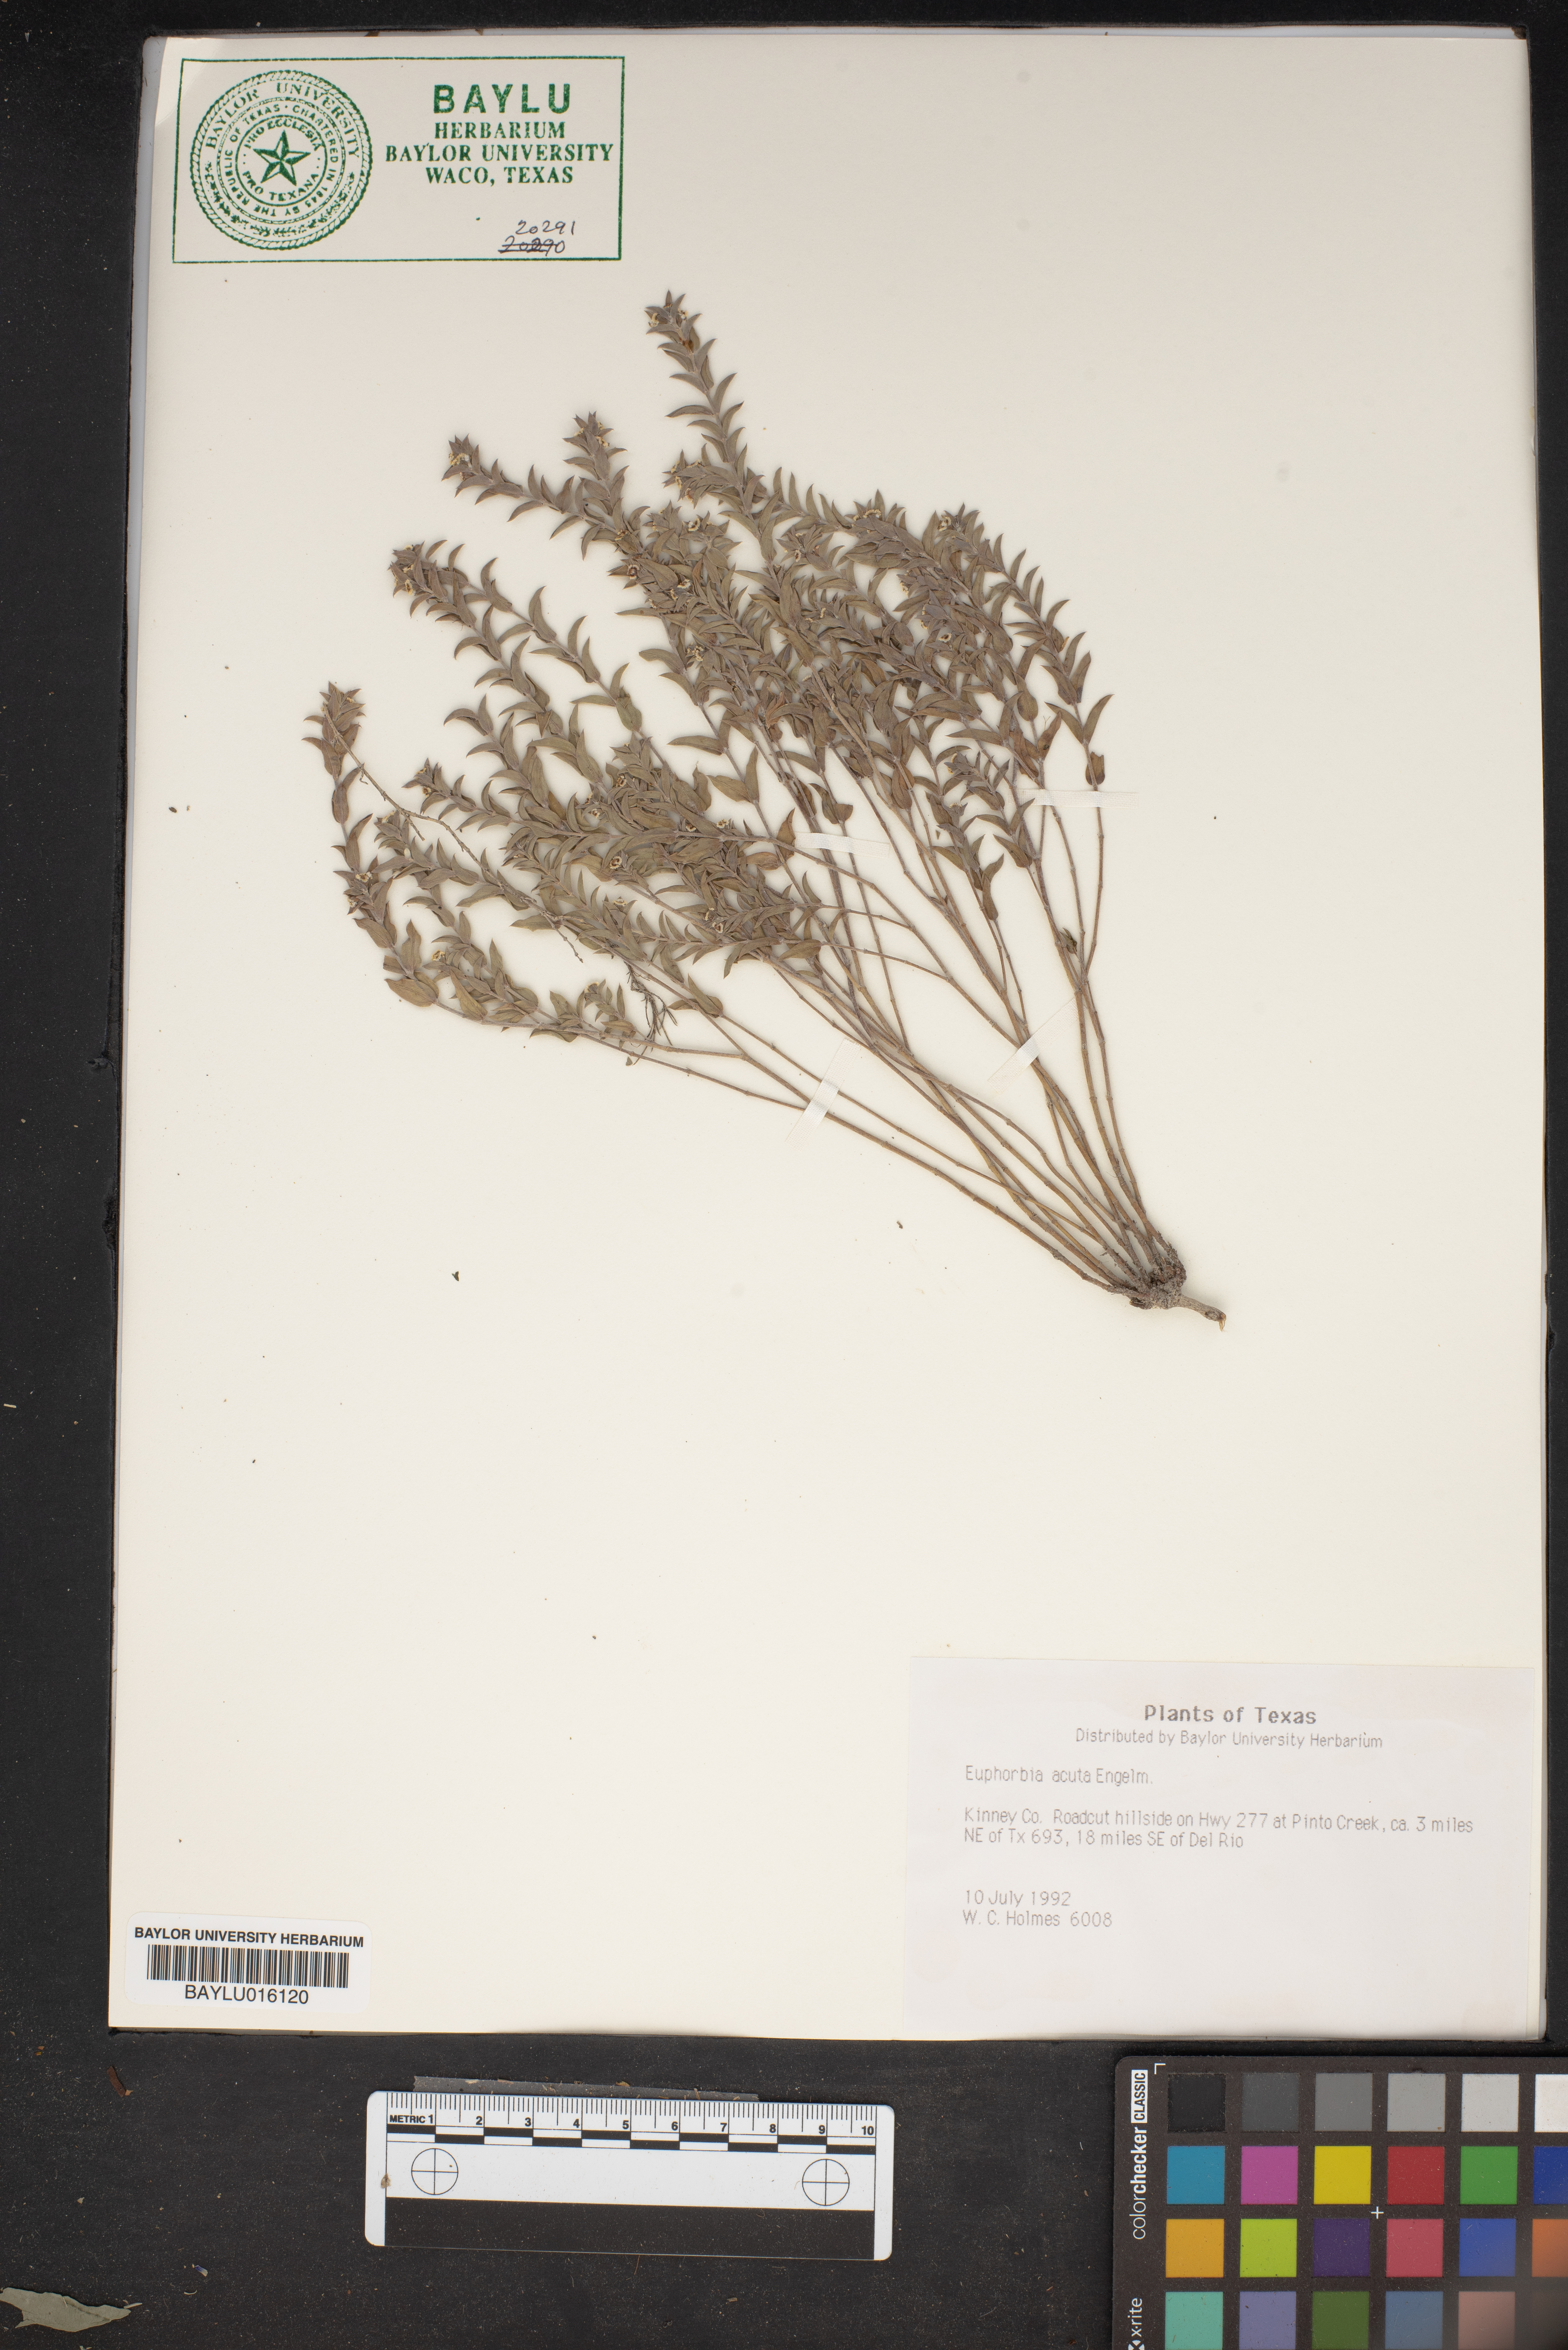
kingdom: Plantae
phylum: Tracheophyta
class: Magnoliopsida
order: Malpighiales
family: Euphorbiaceae
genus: Euphorbia
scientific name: Euphorbia acuta
